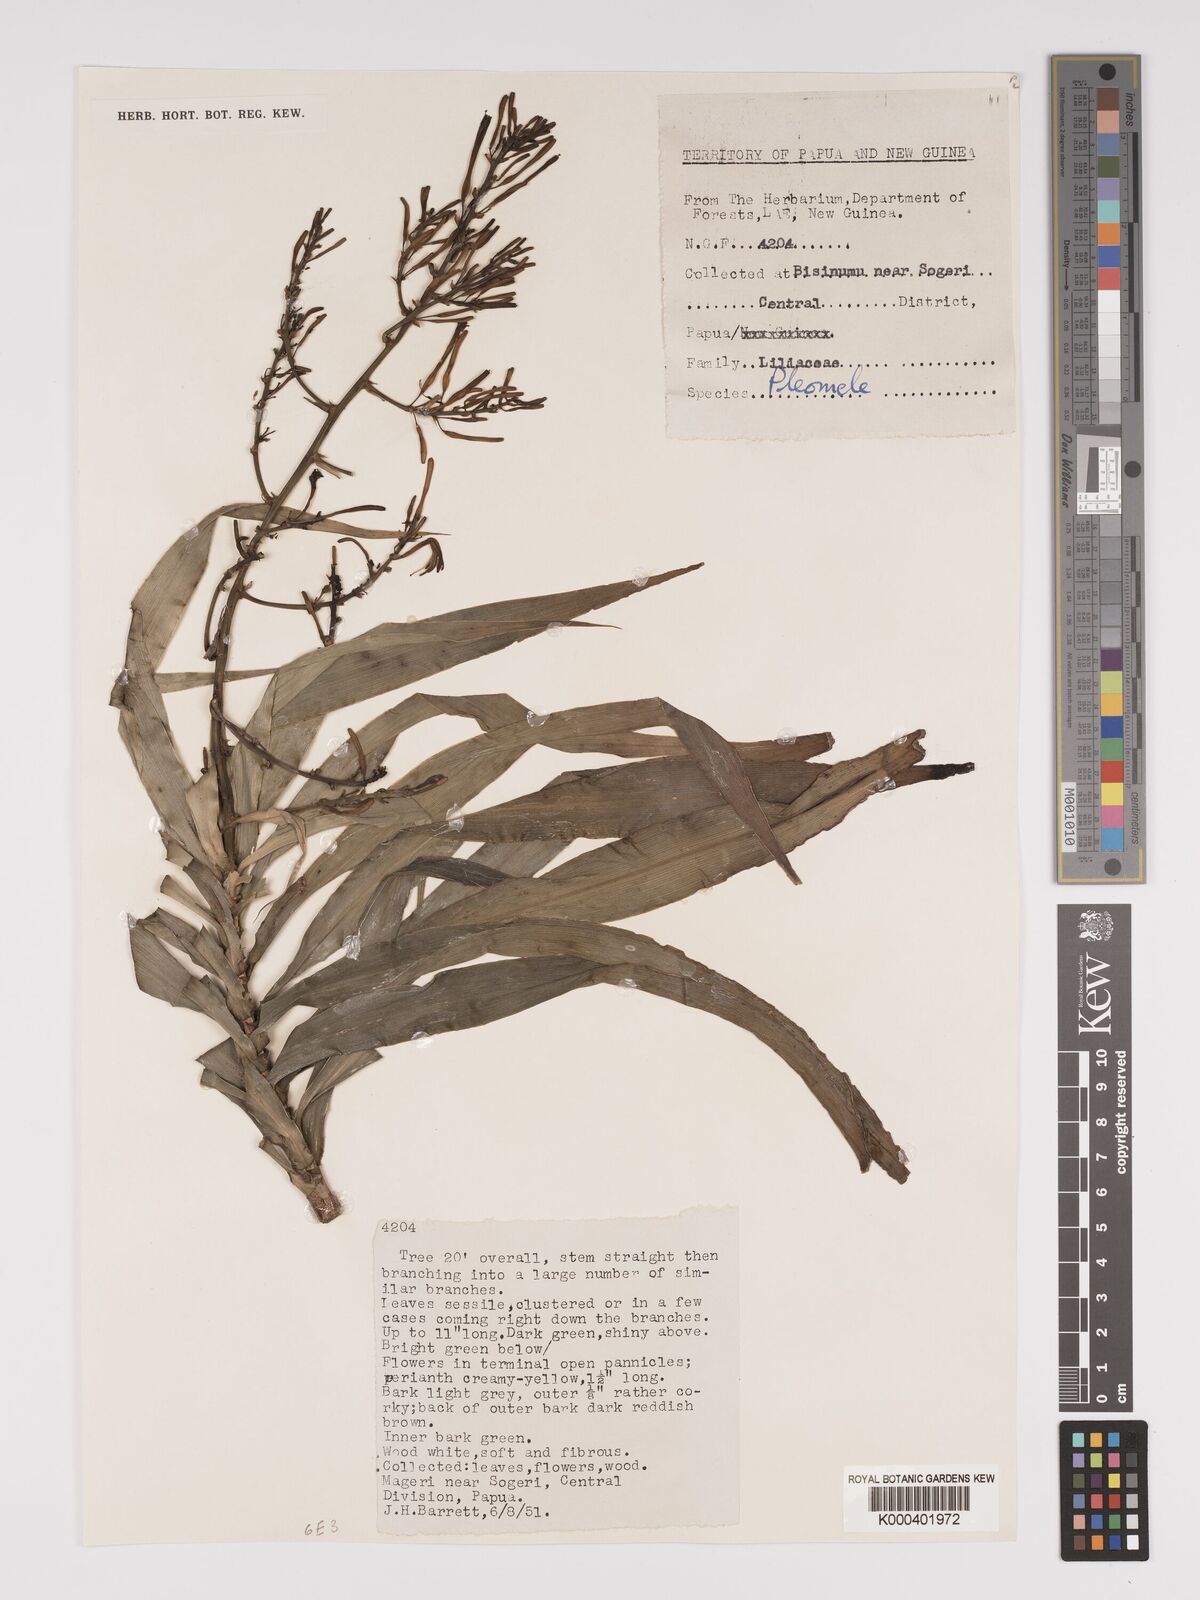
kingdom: Plantae
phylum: Tracheophyta
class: Liliopsida
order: Asparagales
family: Asparagaceae
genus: Dracaena
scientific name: Dracaena angustifolia
